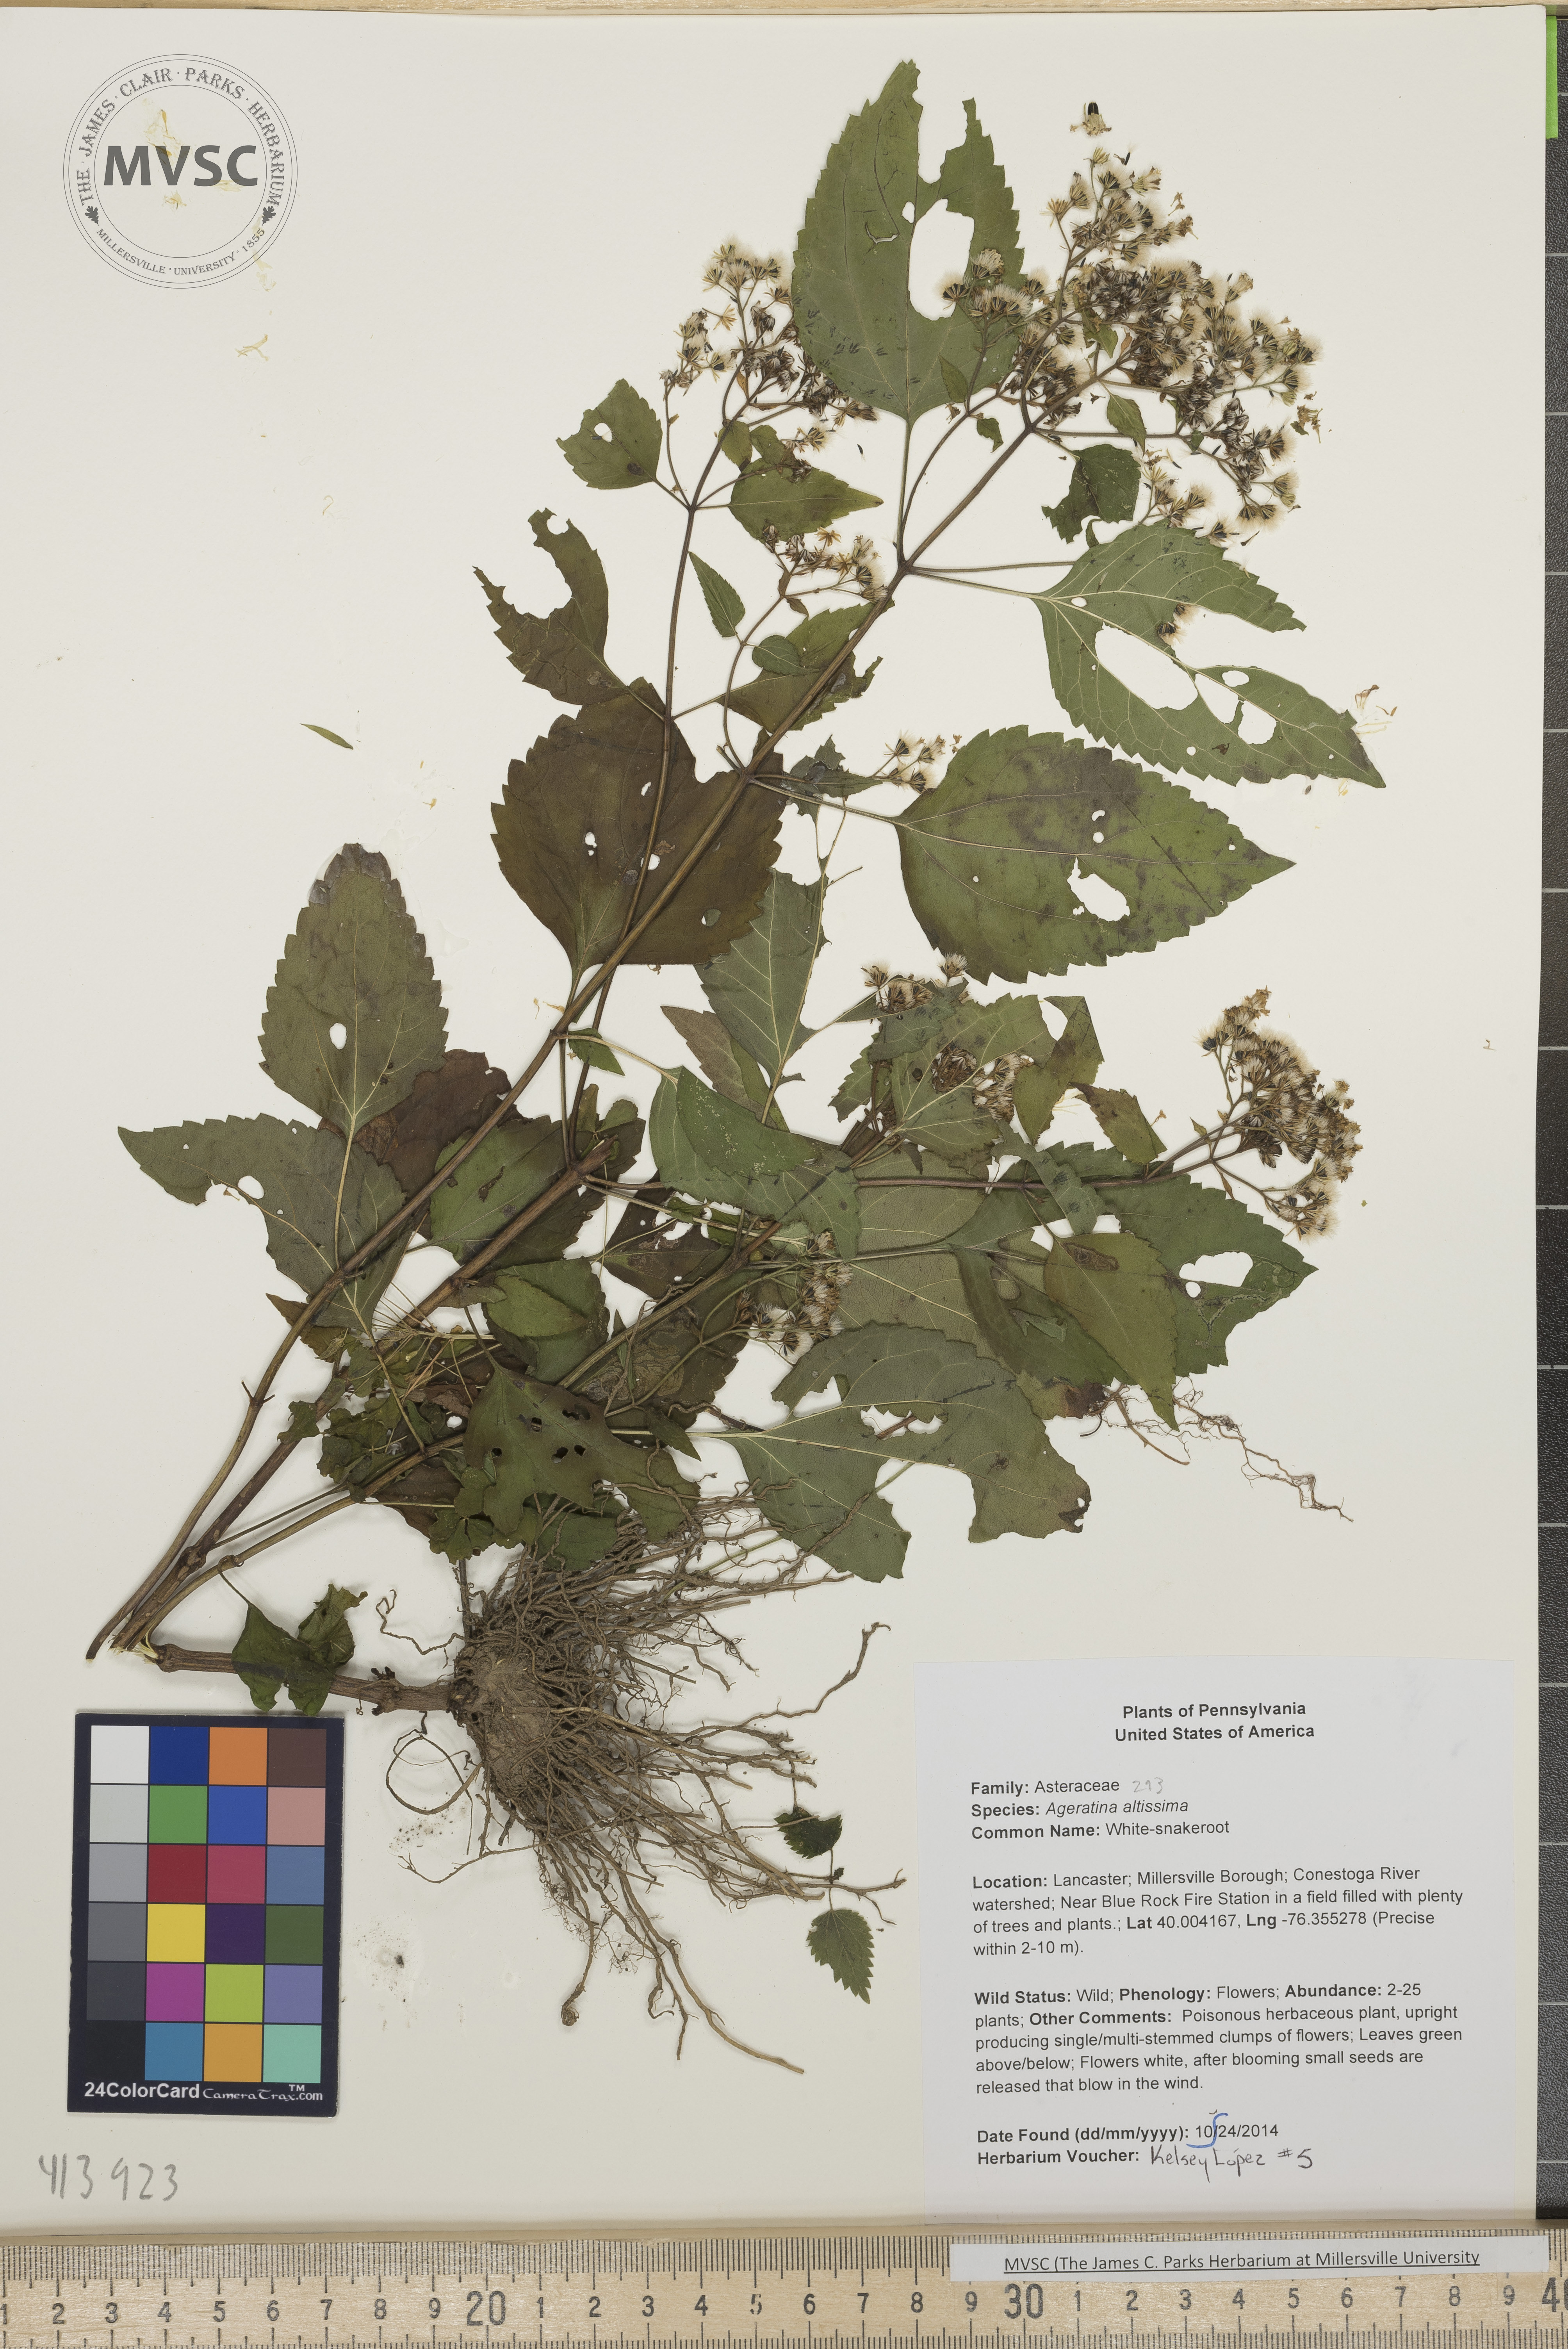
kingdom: Plantae
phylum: Tracheophyta
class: Magnoliopsida
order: Asterales
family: Asteraceae
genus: Ageratina
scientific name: Ageratina altissima
